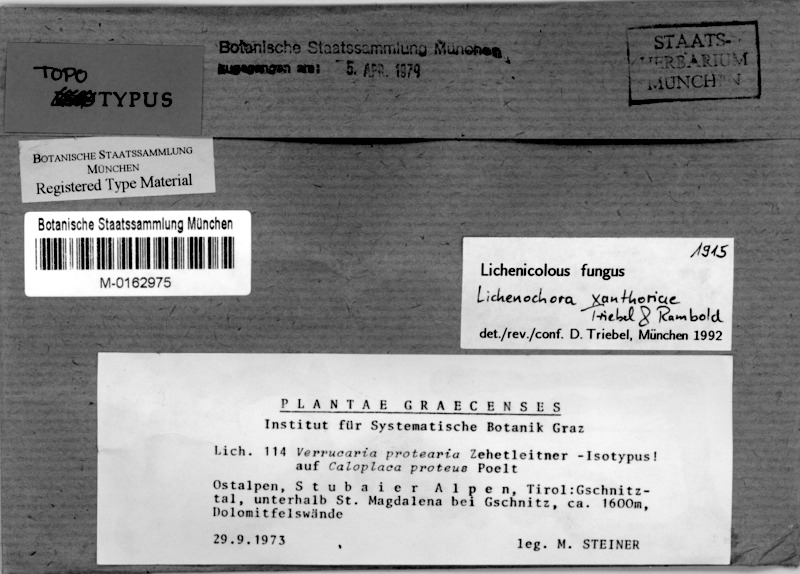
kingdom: Fungi
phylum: Ascomycota
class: Sordariomycetes
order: Phyllachorales
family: Phyllachoraceae
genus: Lichenochora
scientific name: Lichenochora xanthoriae
